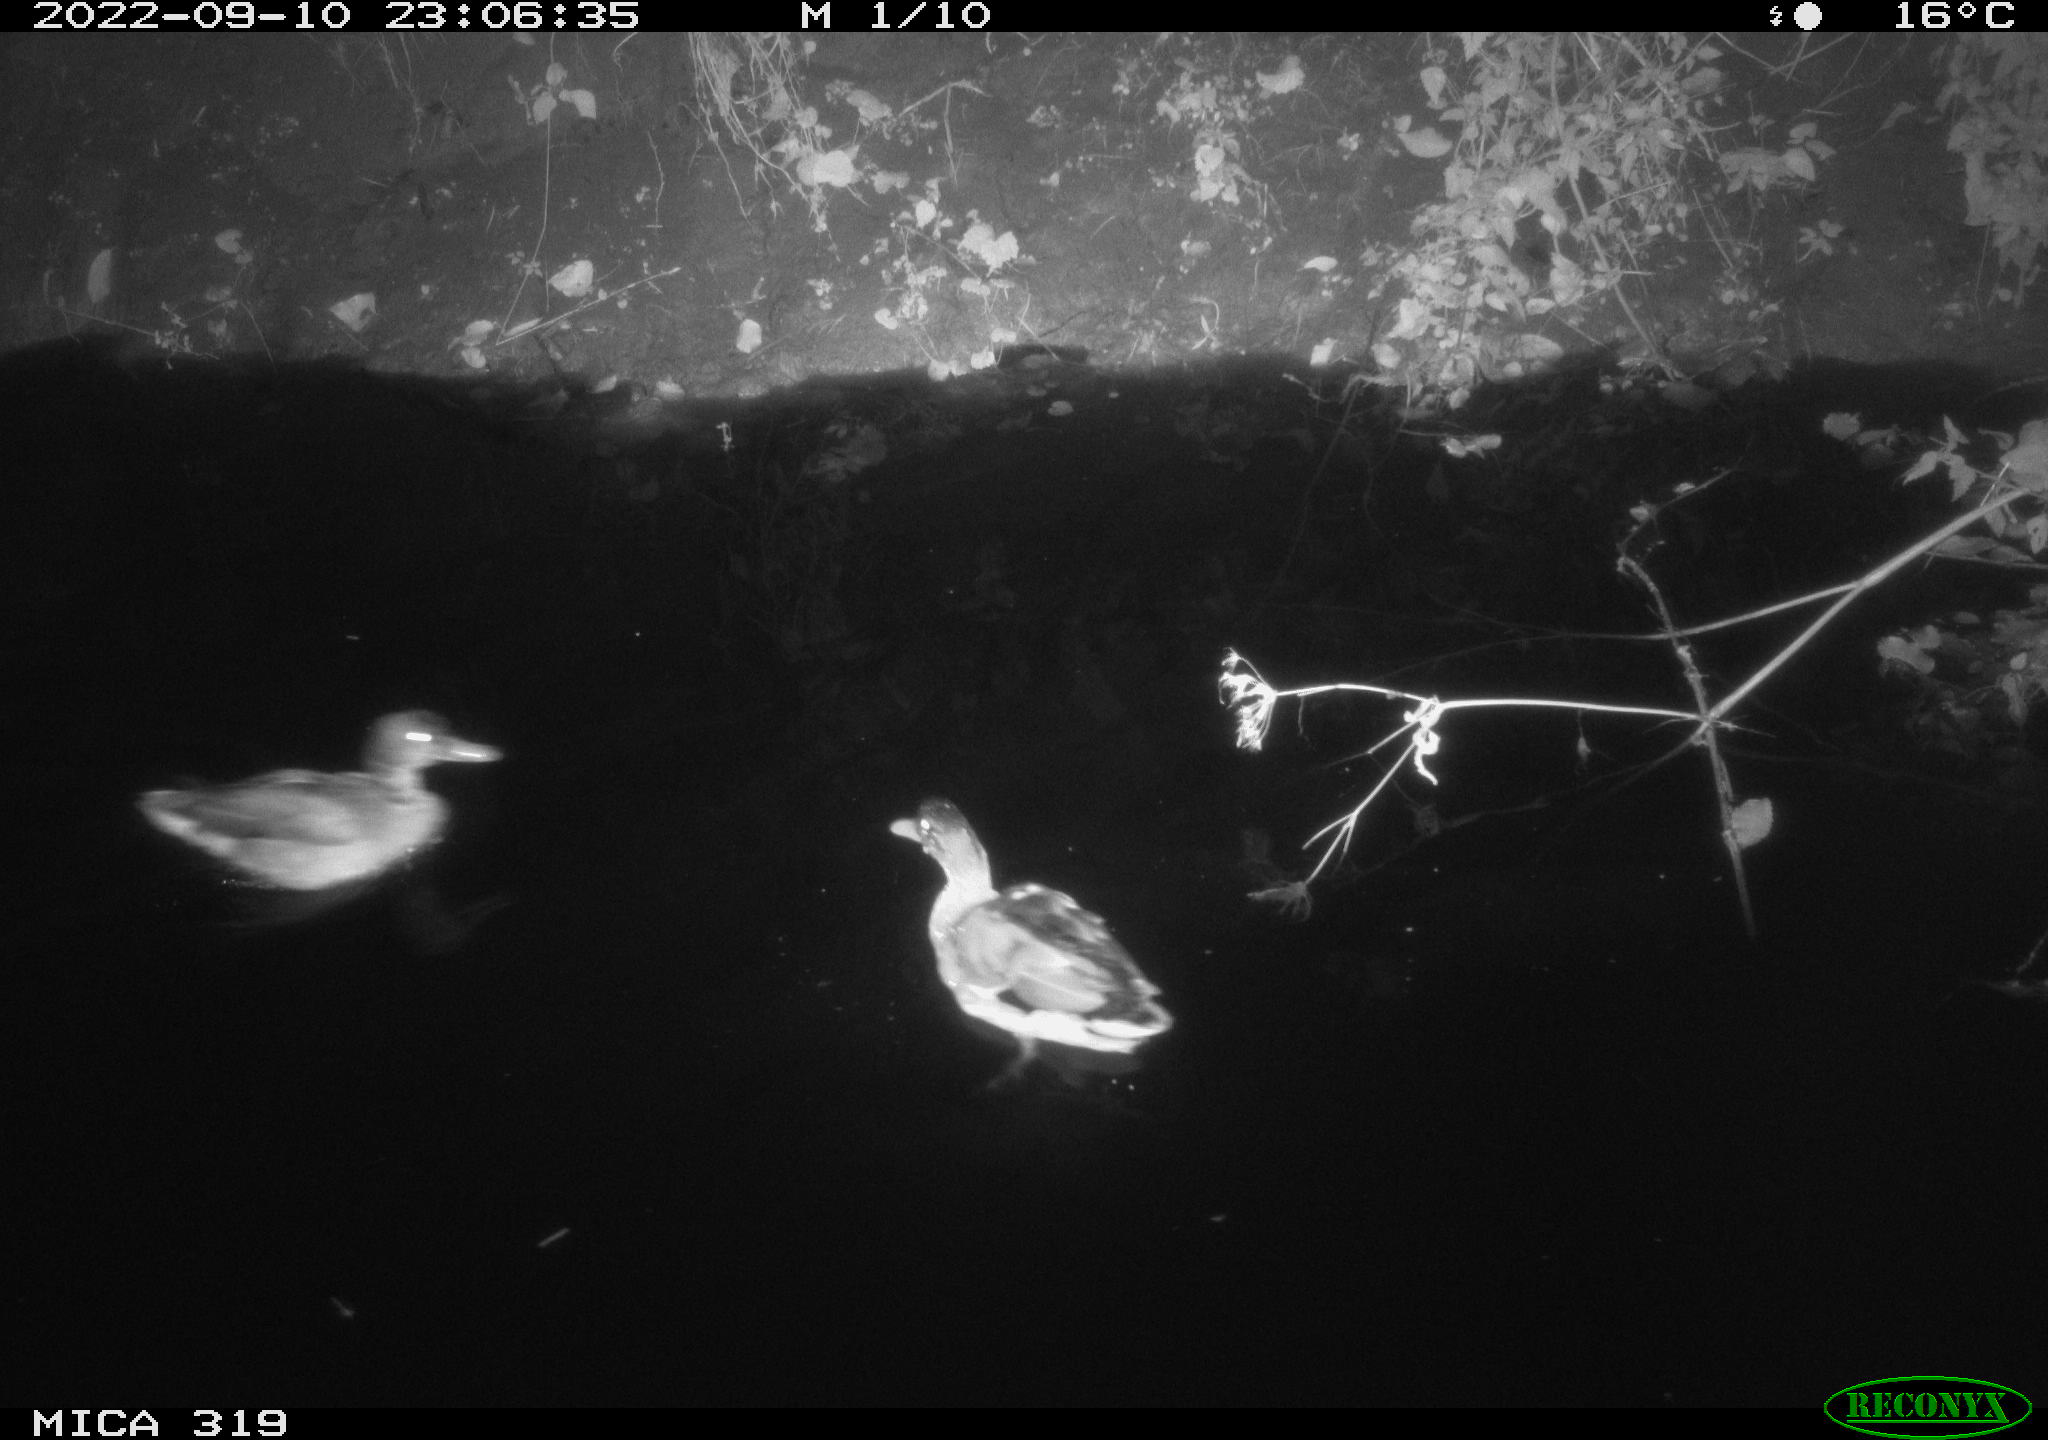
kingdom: Animalia
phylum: Chordata
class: Aves
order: Anseriformes
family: Anatidae
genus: Anas
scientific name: Anas
